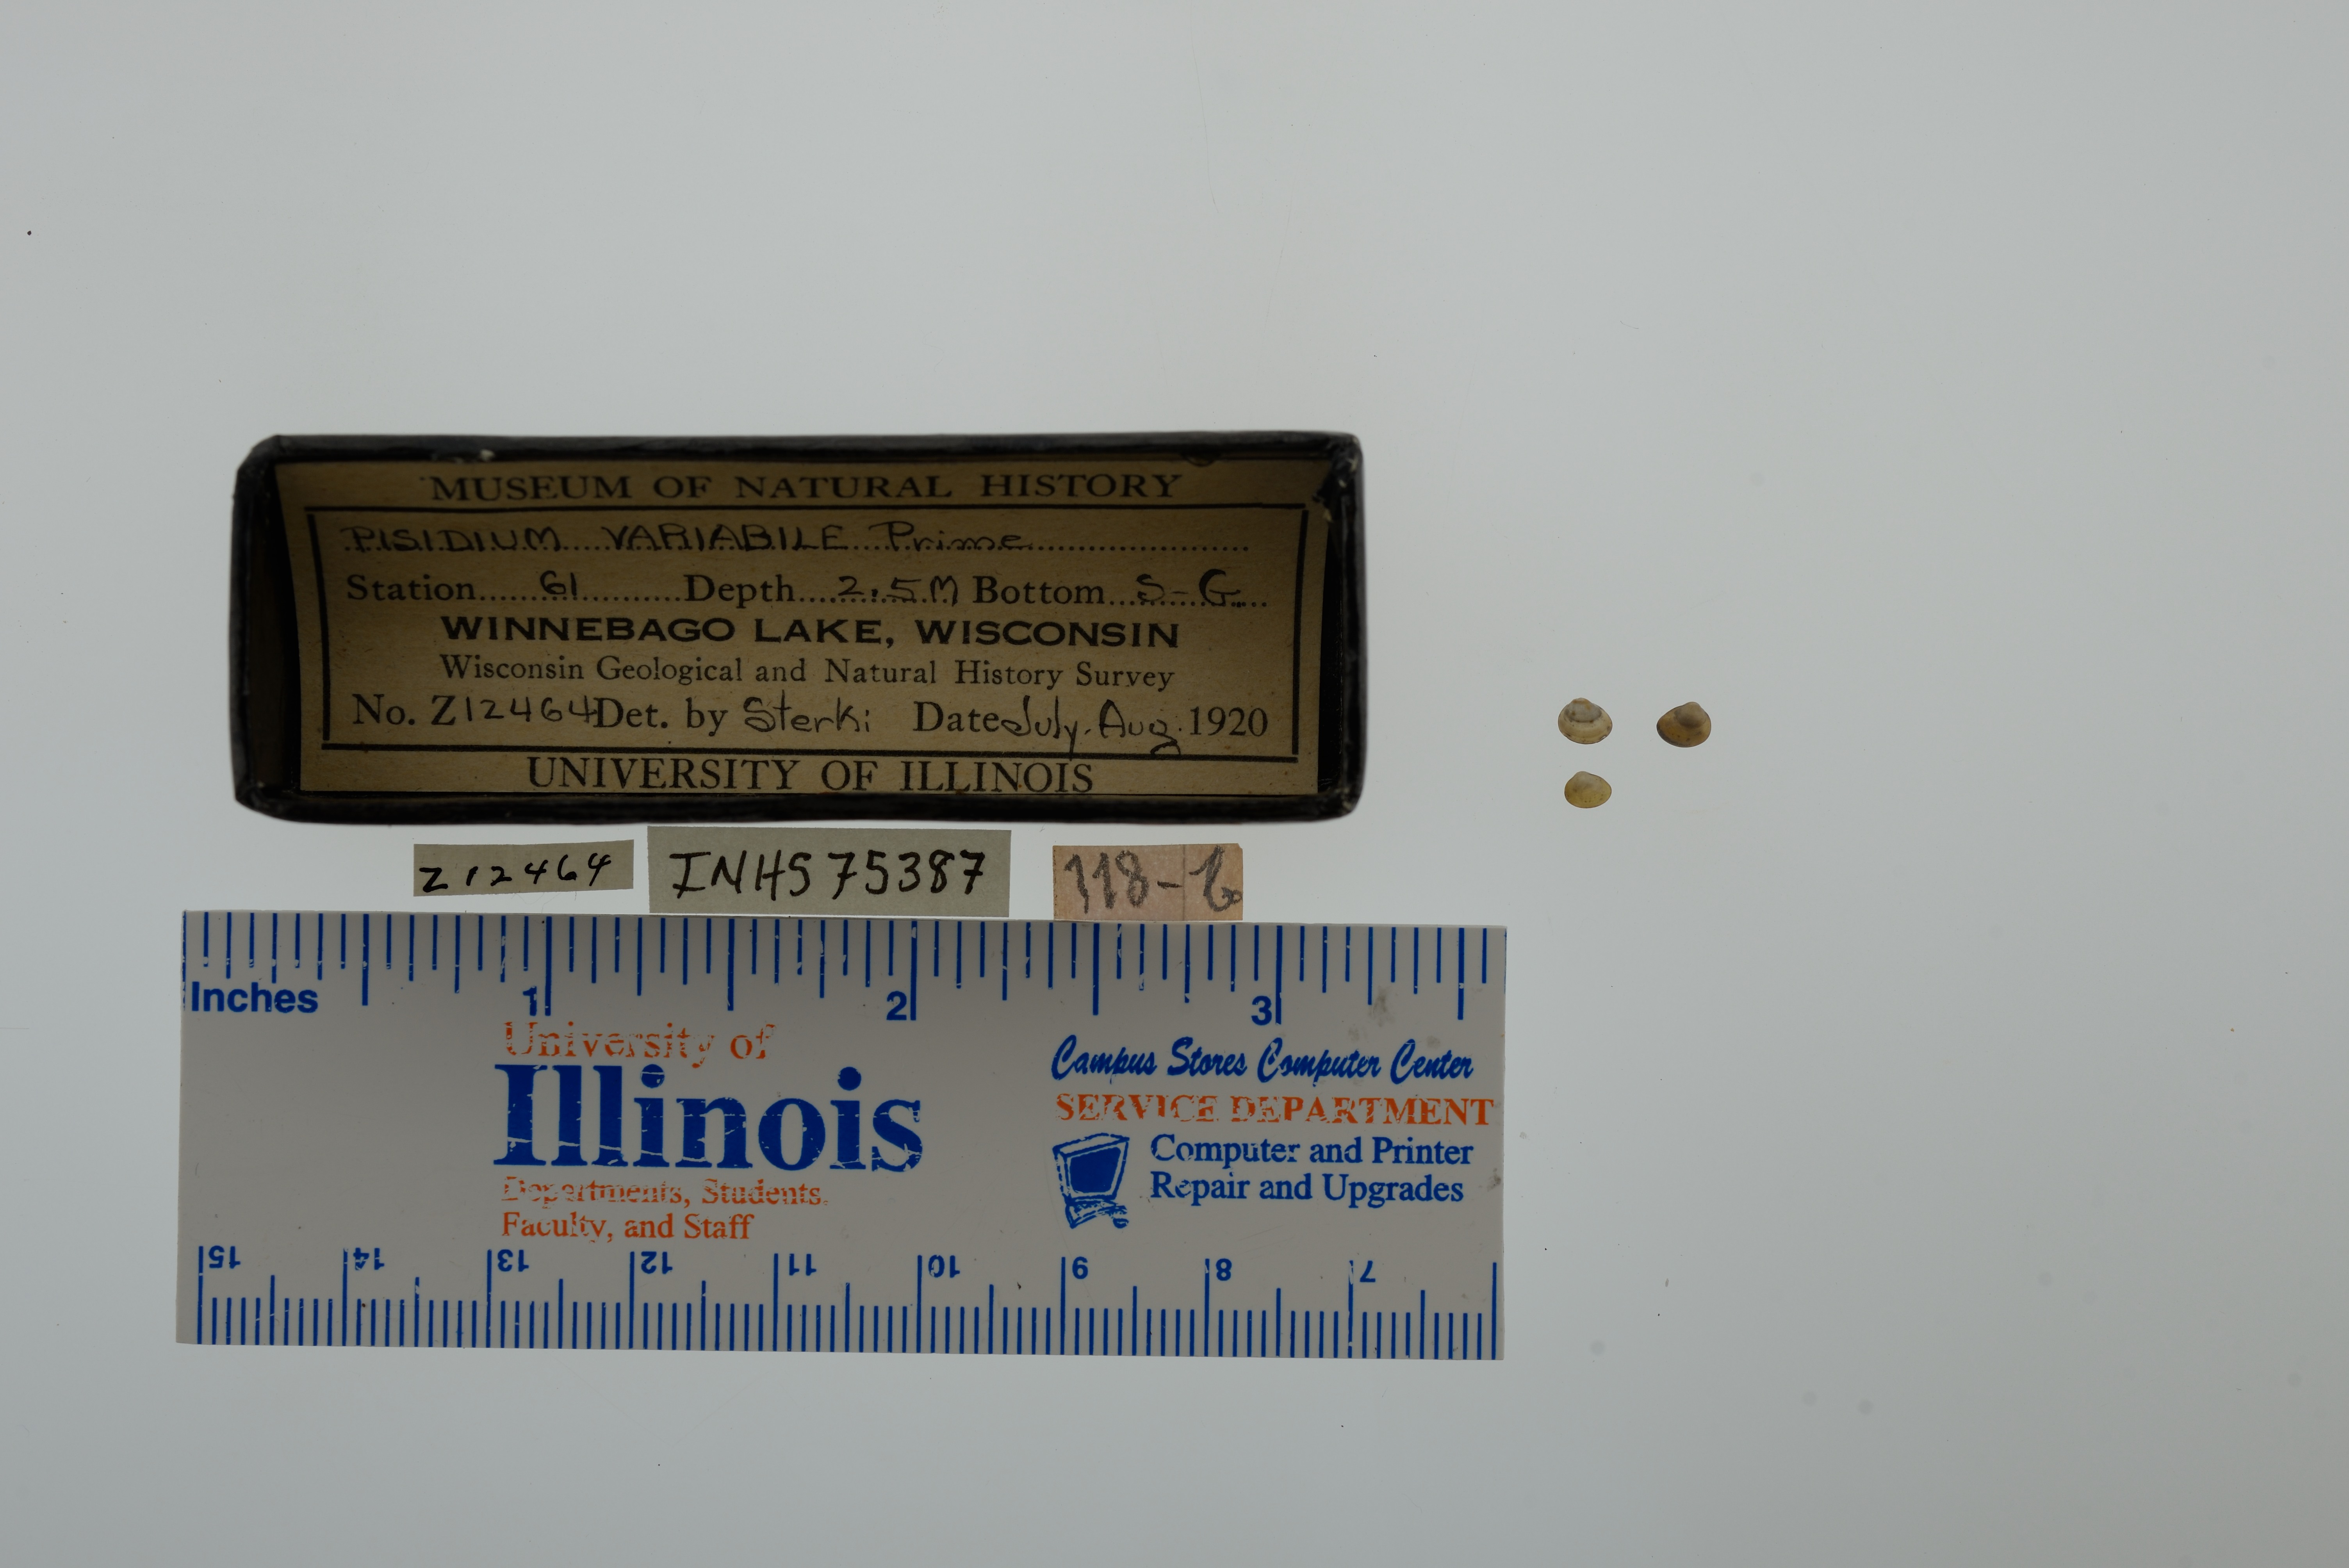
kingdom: Animalia
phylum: Mollusca
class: Bivalvia
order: Sphaeriida
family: Sphaeriidae
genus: Euglesa
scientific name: Euglesa variabilis
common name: Triangular peaclam
